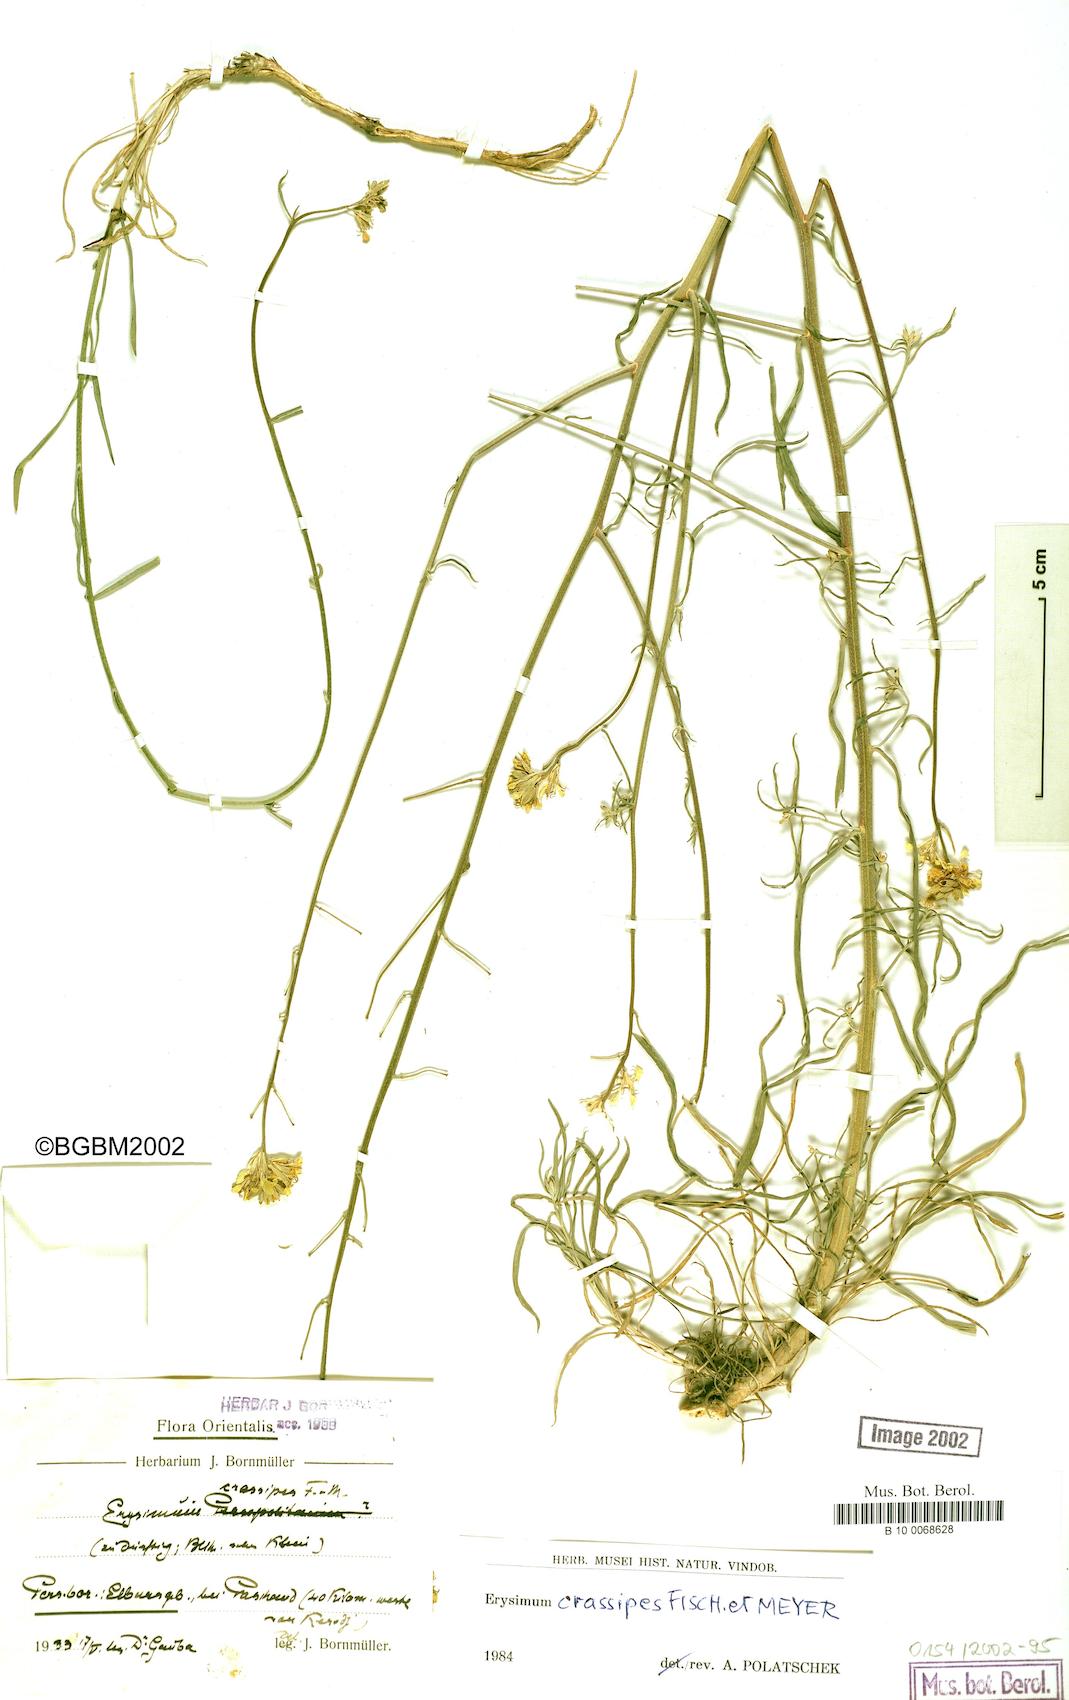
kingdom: Plantae
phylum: Tracheophyta
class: Magnoliopsida
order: Brassicales
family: Brassicaceae
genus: Erysimum
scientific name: Erysimum crassipes
